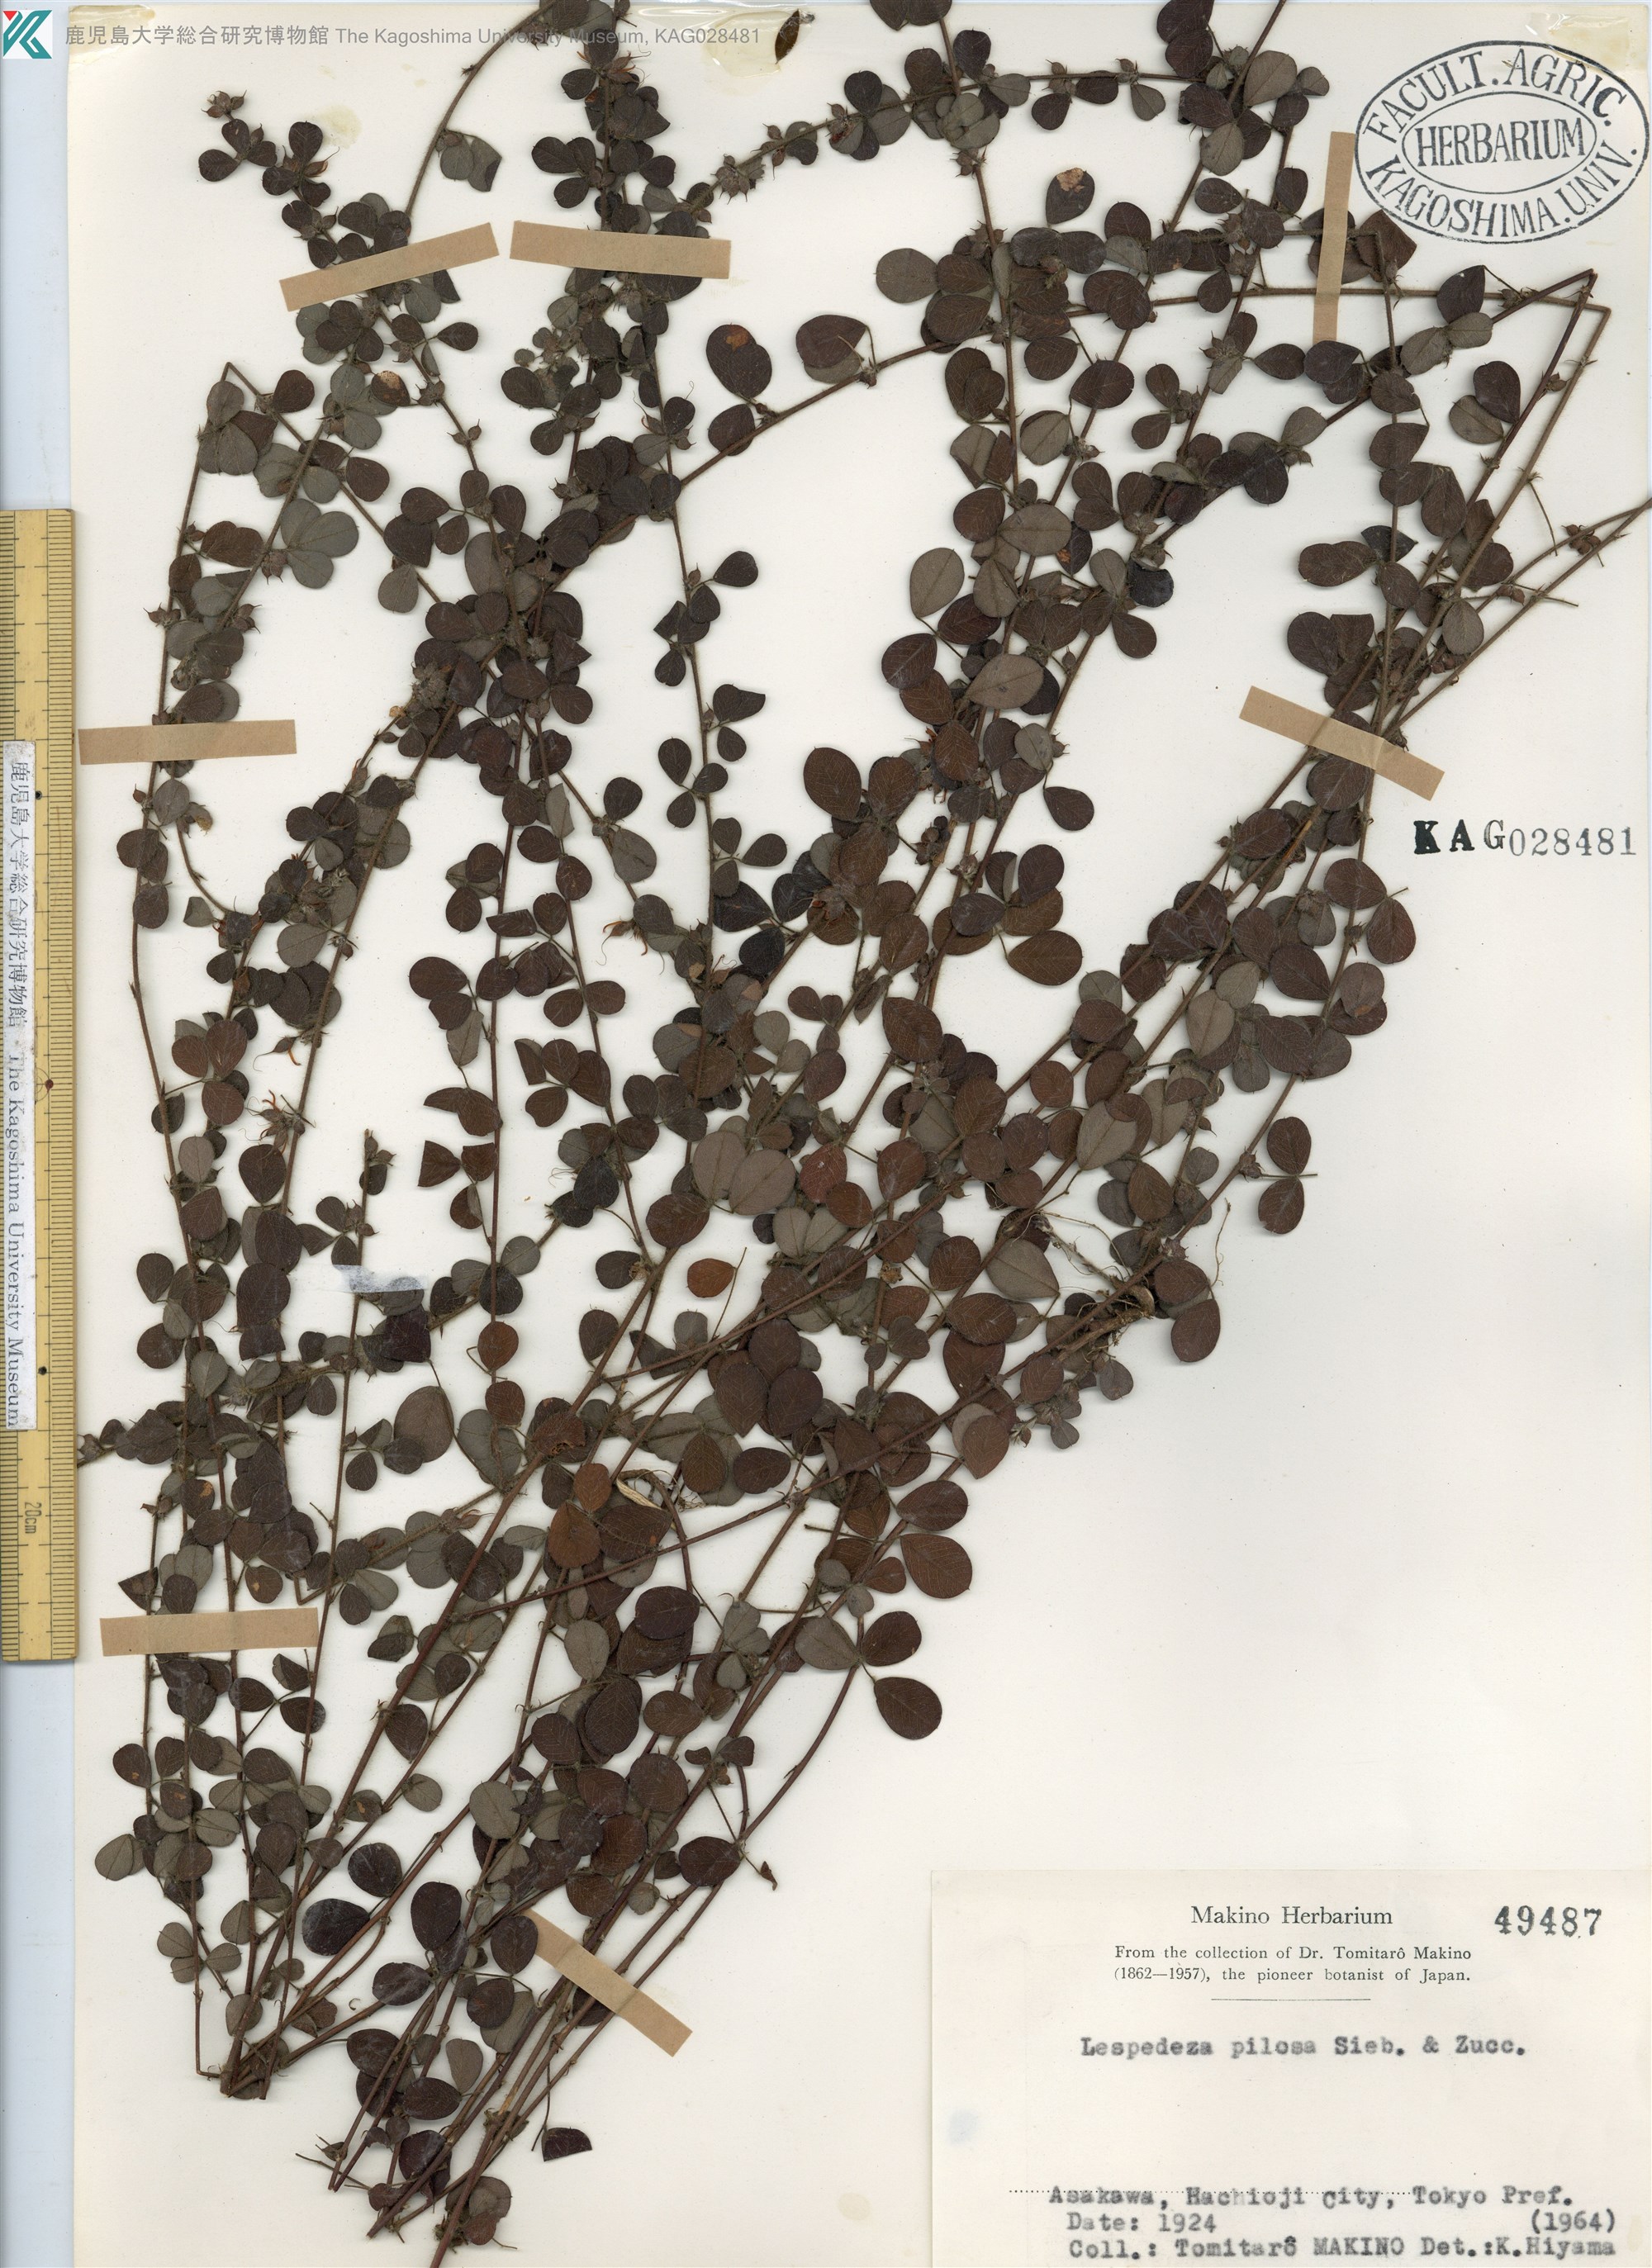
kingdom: Plantae
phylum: Tracheophyta
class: Magnoliopsida
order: Fabales
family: Fabaceae
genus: Lespedeza
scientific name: Lespedeza pilosa
